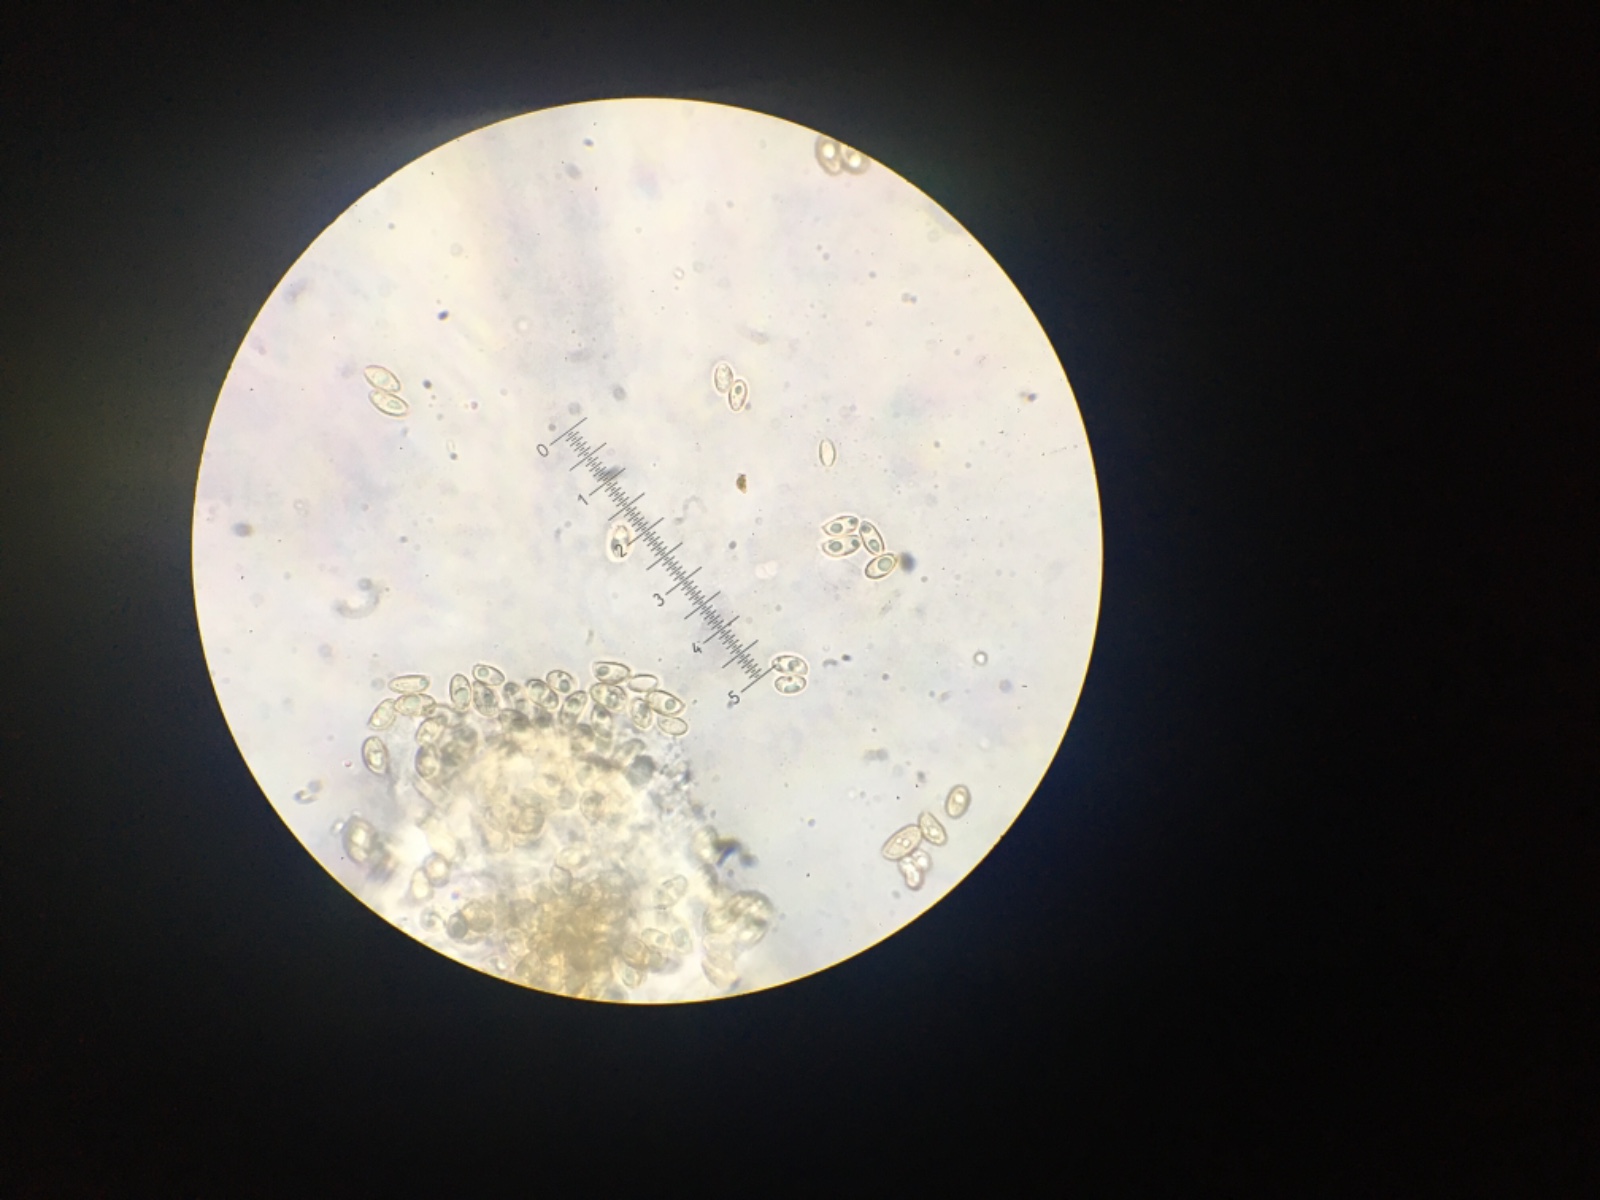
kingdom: Fungi
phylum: Basidiomycota
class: Agaricomycetes
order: Agaricales
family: Crepidotaceae
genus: Crepidotus
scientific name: Crepidotus luteolus
